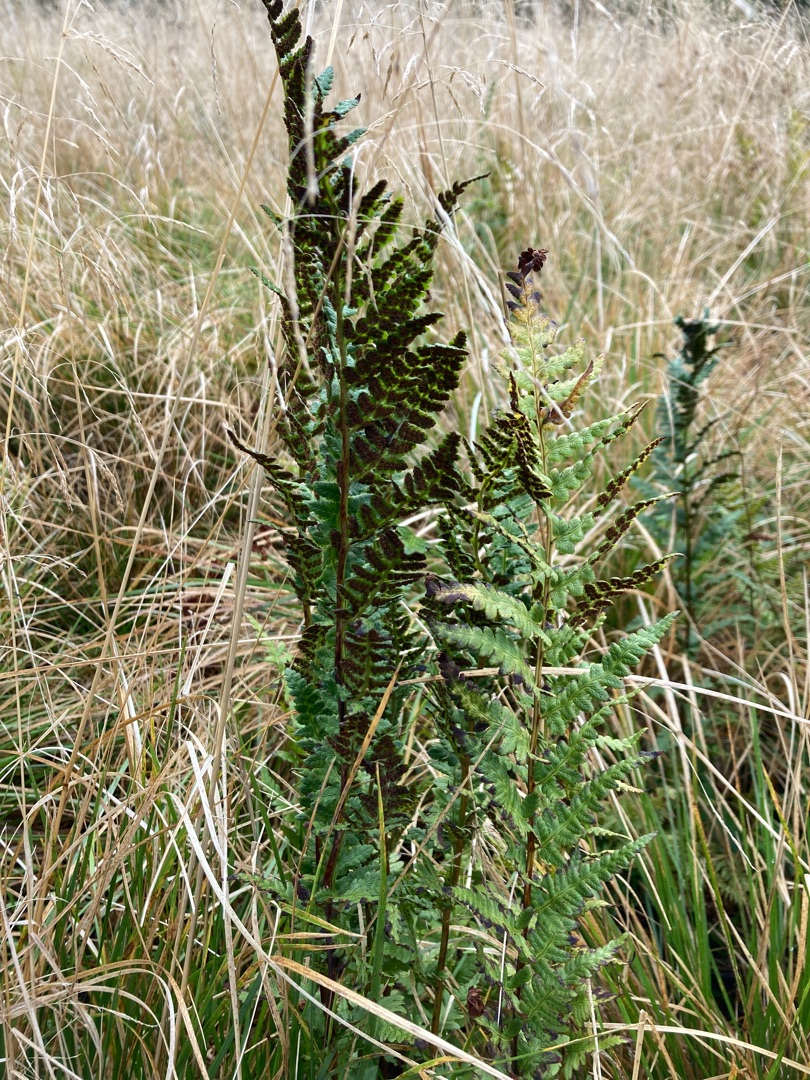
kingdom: Plantae
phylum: Tracheophyta
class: Polypodiopsida
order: Polypodiales
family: Dryopteridaceae
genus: Dryopteris
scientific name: Dryopteris cristata
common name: Butfinnet mangeløv
